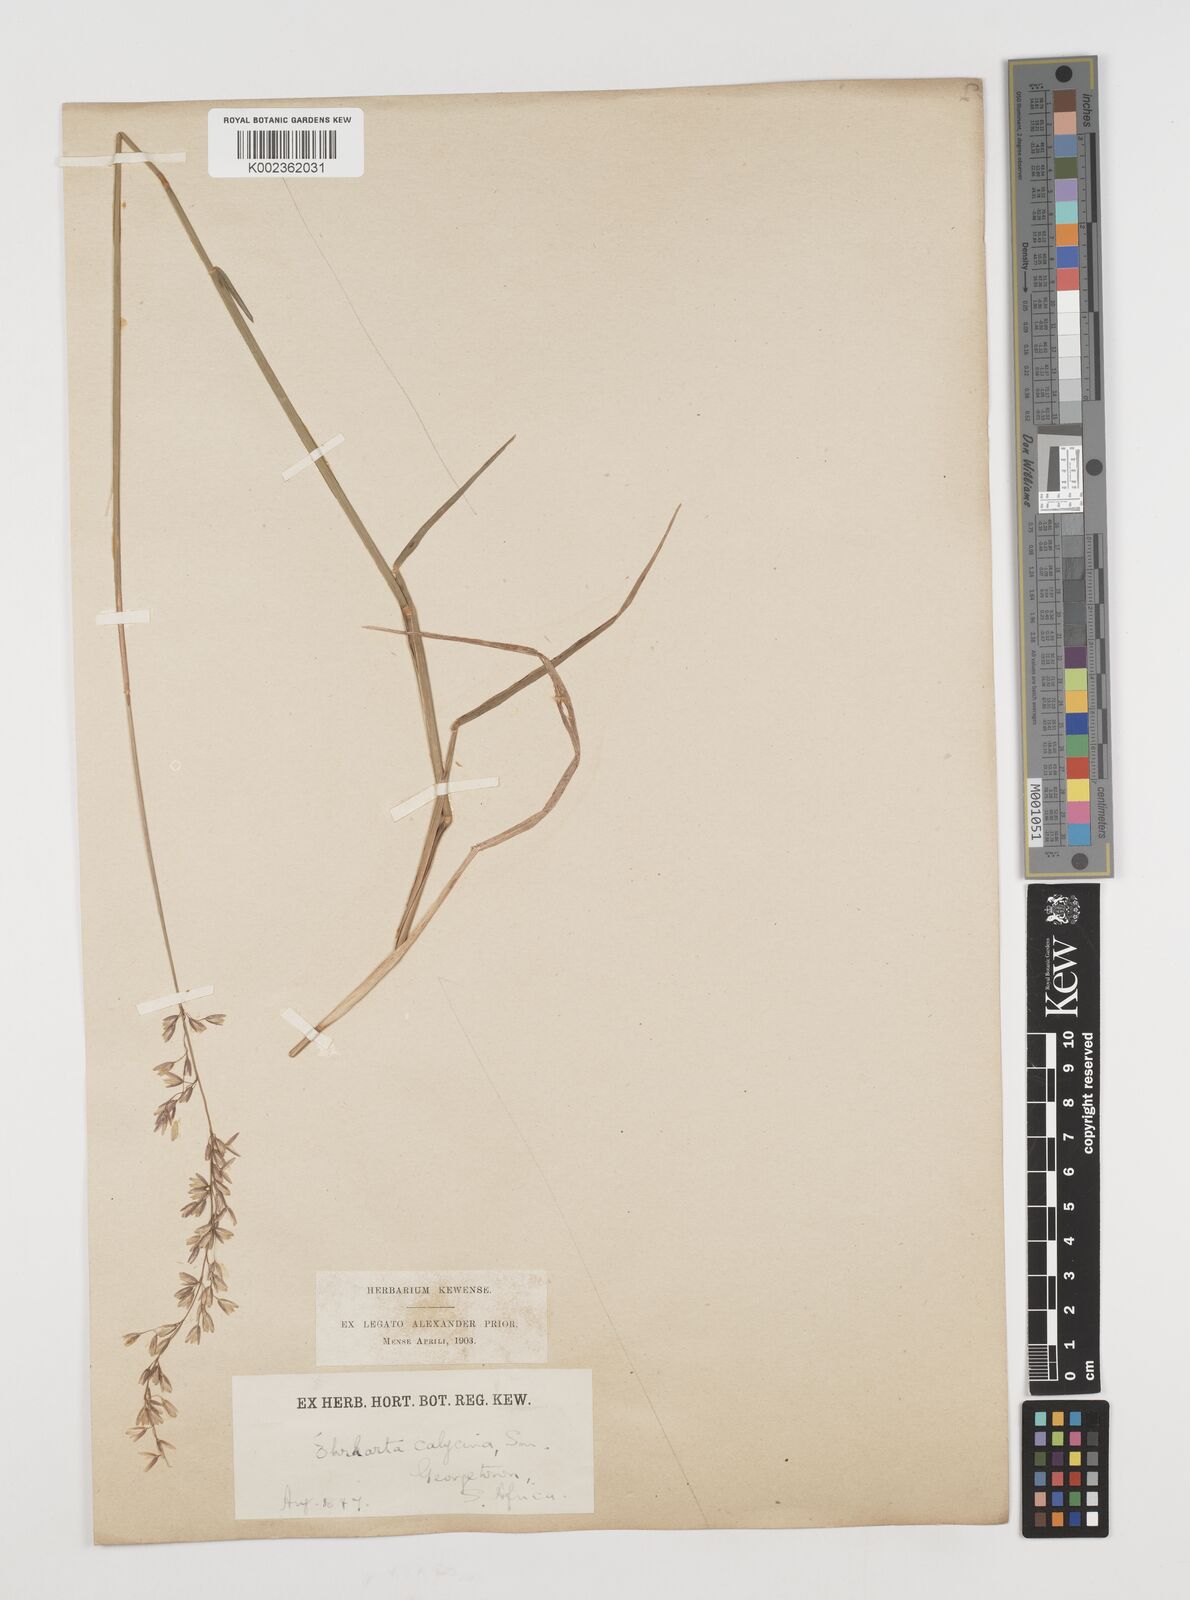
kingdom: Plantae
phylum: Tracheophyta
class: Liliopsida
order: Poales
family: Poaceae
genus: Ehrharta
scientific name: Ehrharta calycina
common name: Perennial veldtgrass
